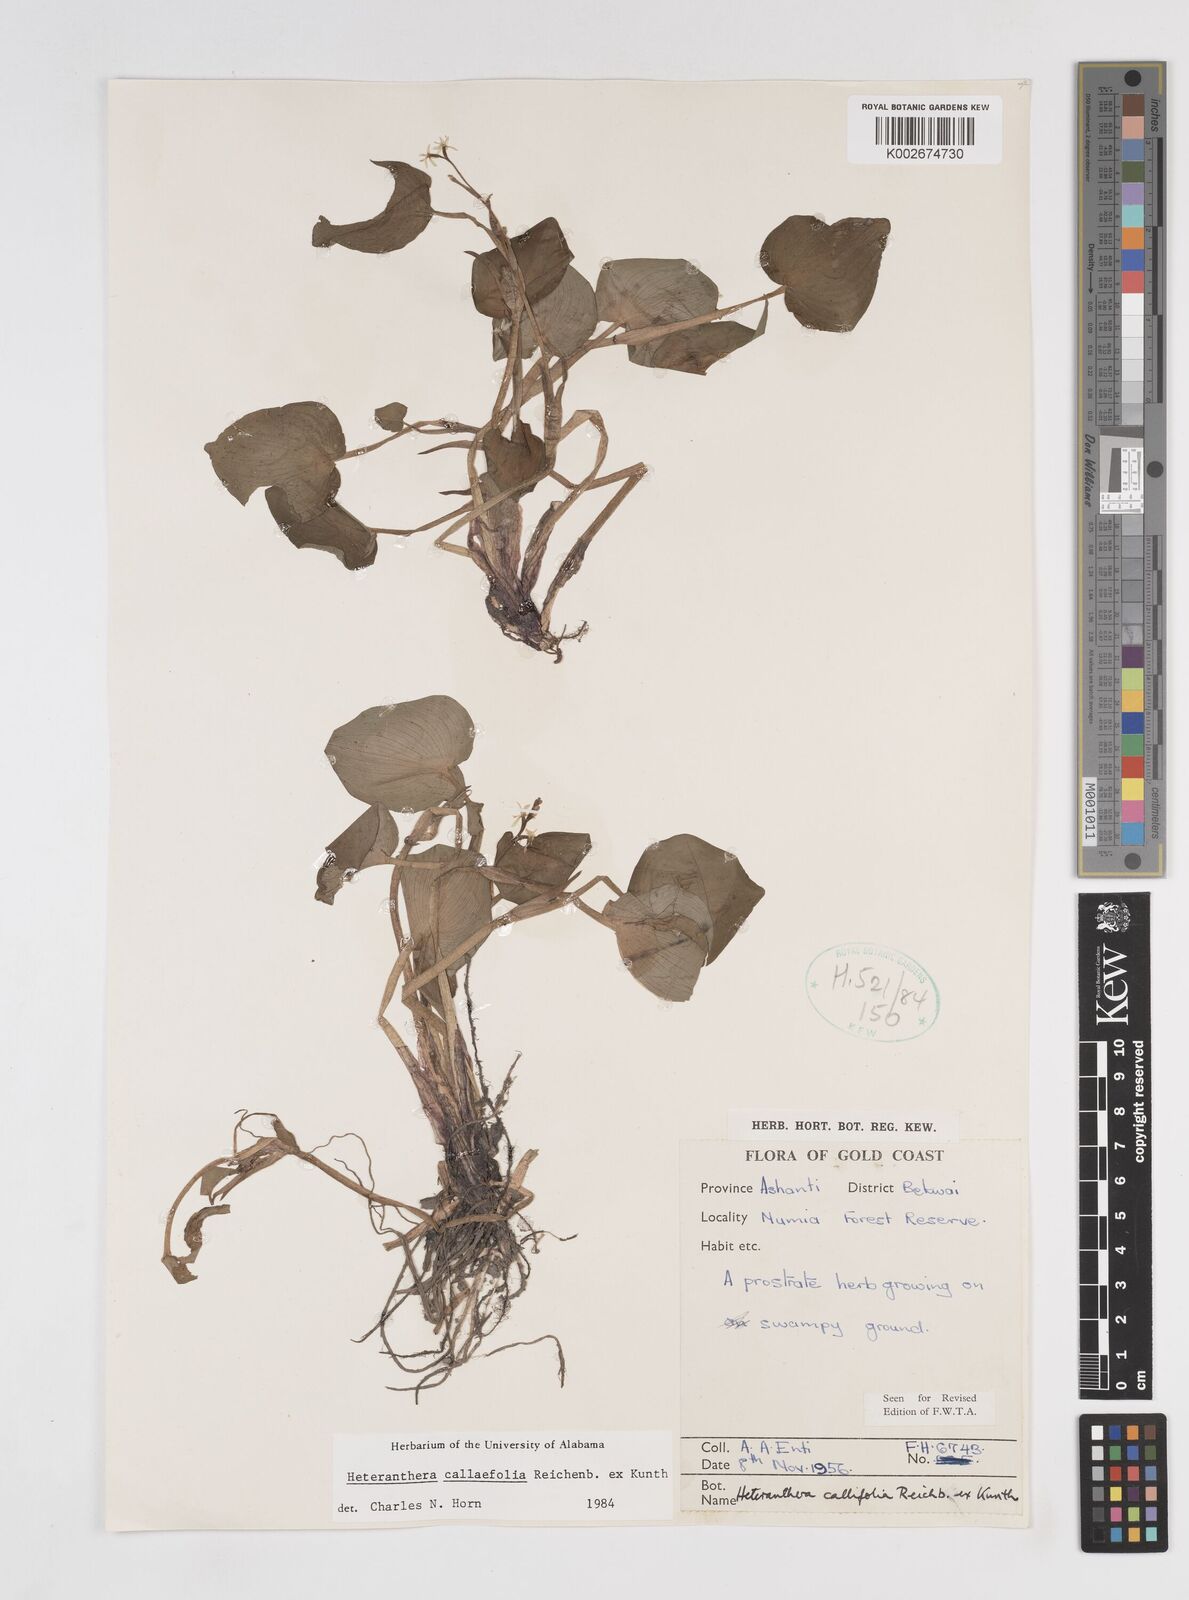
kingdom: Plantae
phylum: Tracheophyta
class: Liliopsida
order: Commelinales
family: Pontederiaceae
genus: Heteranthera
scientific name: Heteranthera callifolia
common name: Mud plantain
